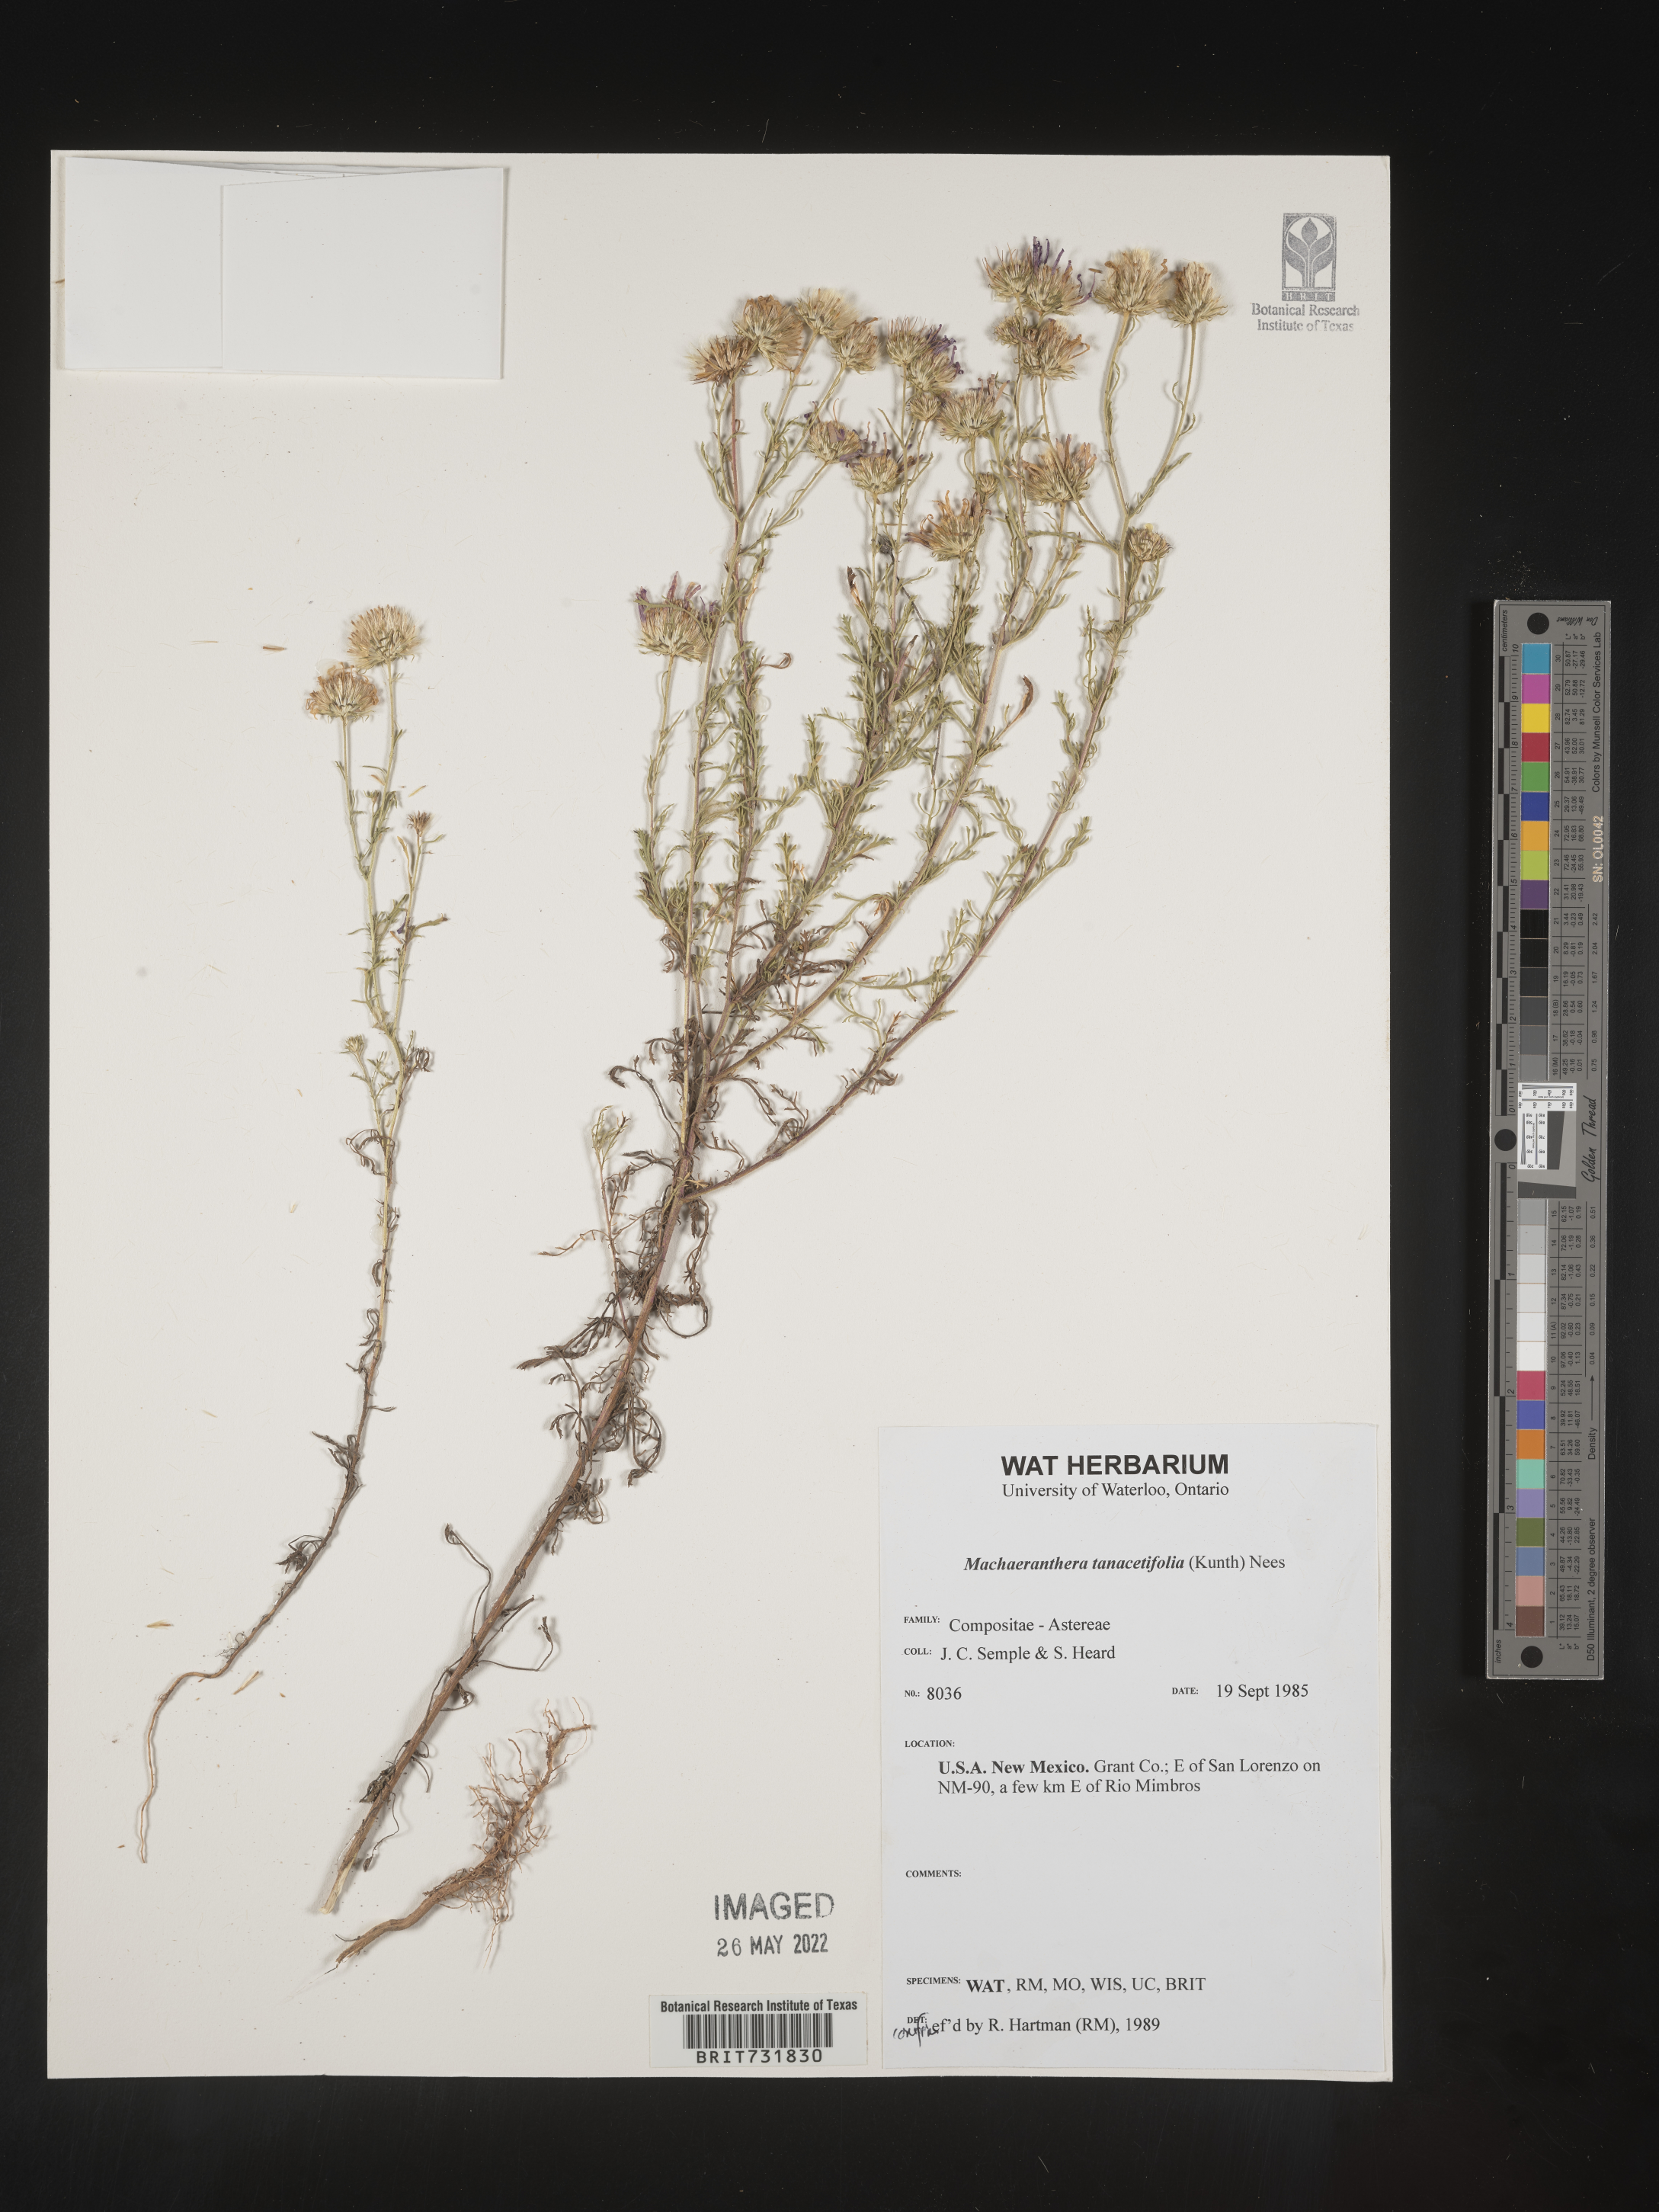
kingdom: Plantae
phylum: Tracheophyta
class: Magnoliopsida
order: Asterales
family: Asteraceae
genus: Machaeranthera
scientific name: Machaeranthera
